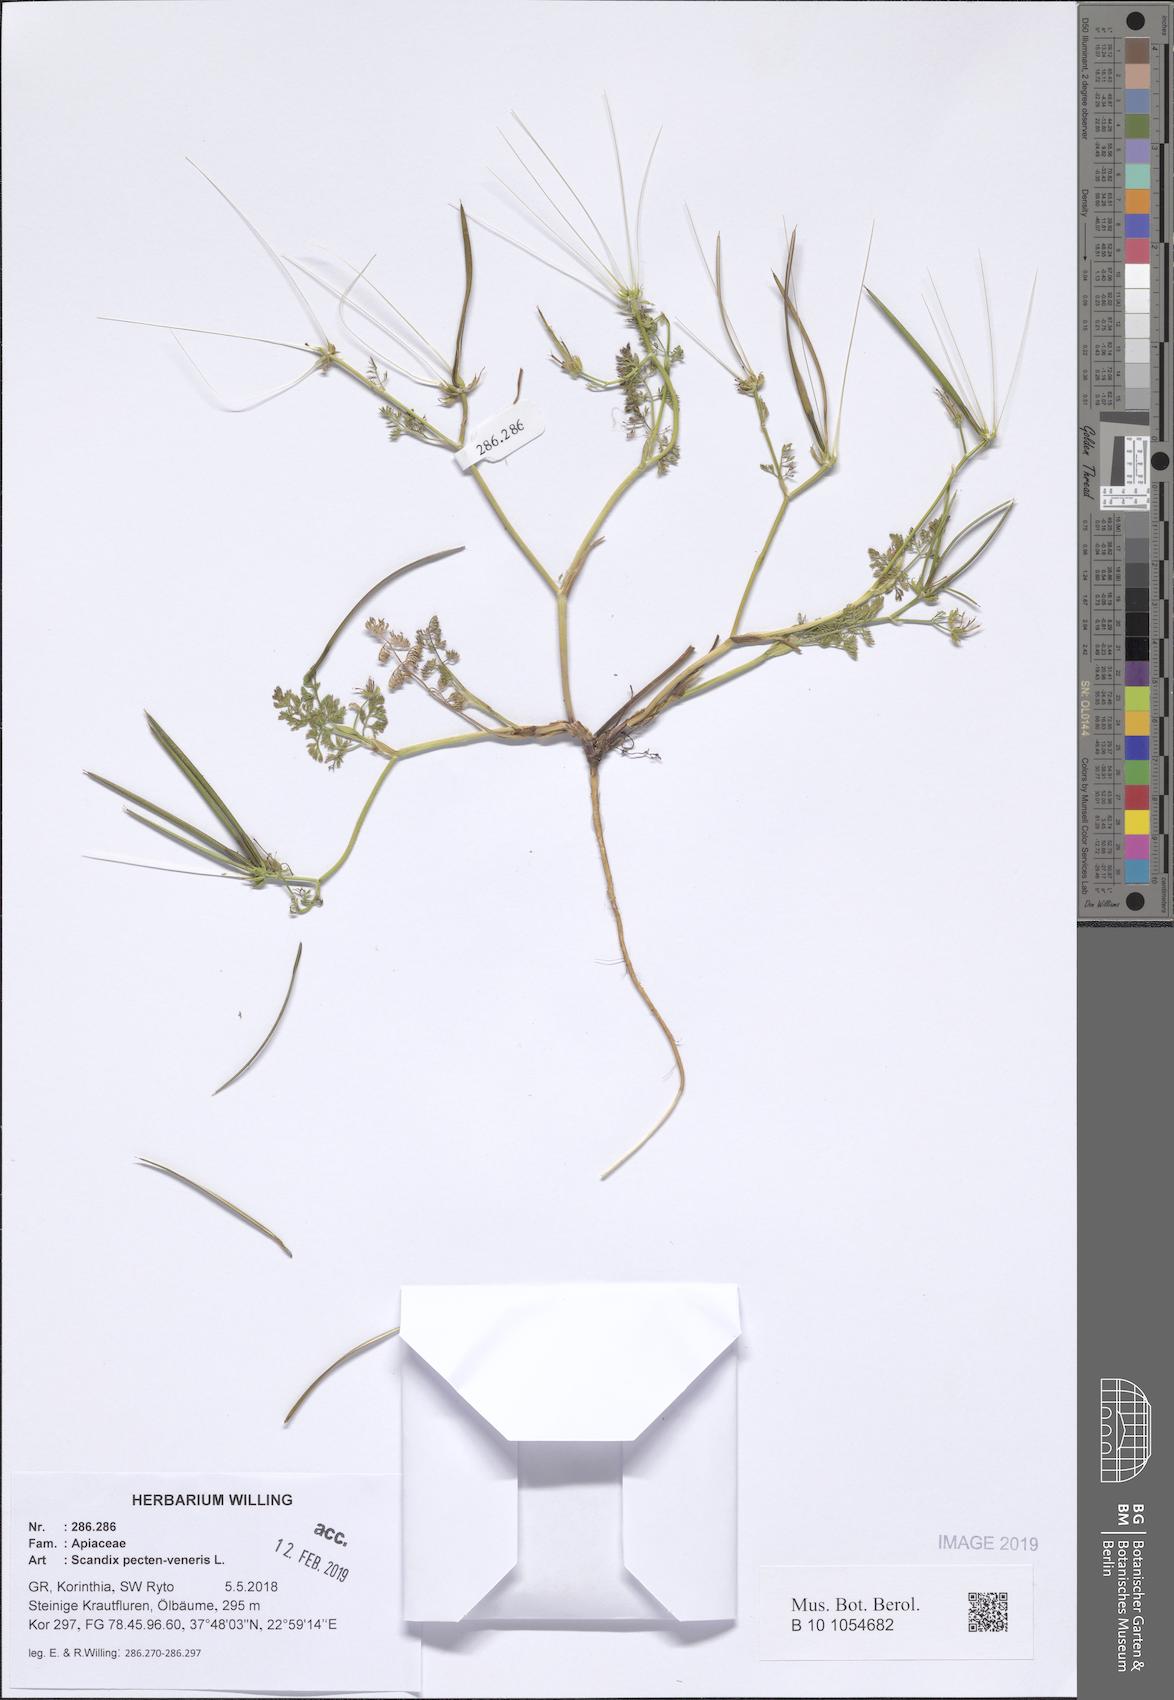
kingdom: Plantae
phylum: Tracheophyta
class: Magnoliopsida
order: Apiales
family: Apiaceae
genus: Scandix
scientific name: Scandix pecten-veneris
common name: Shepherd's-needle
